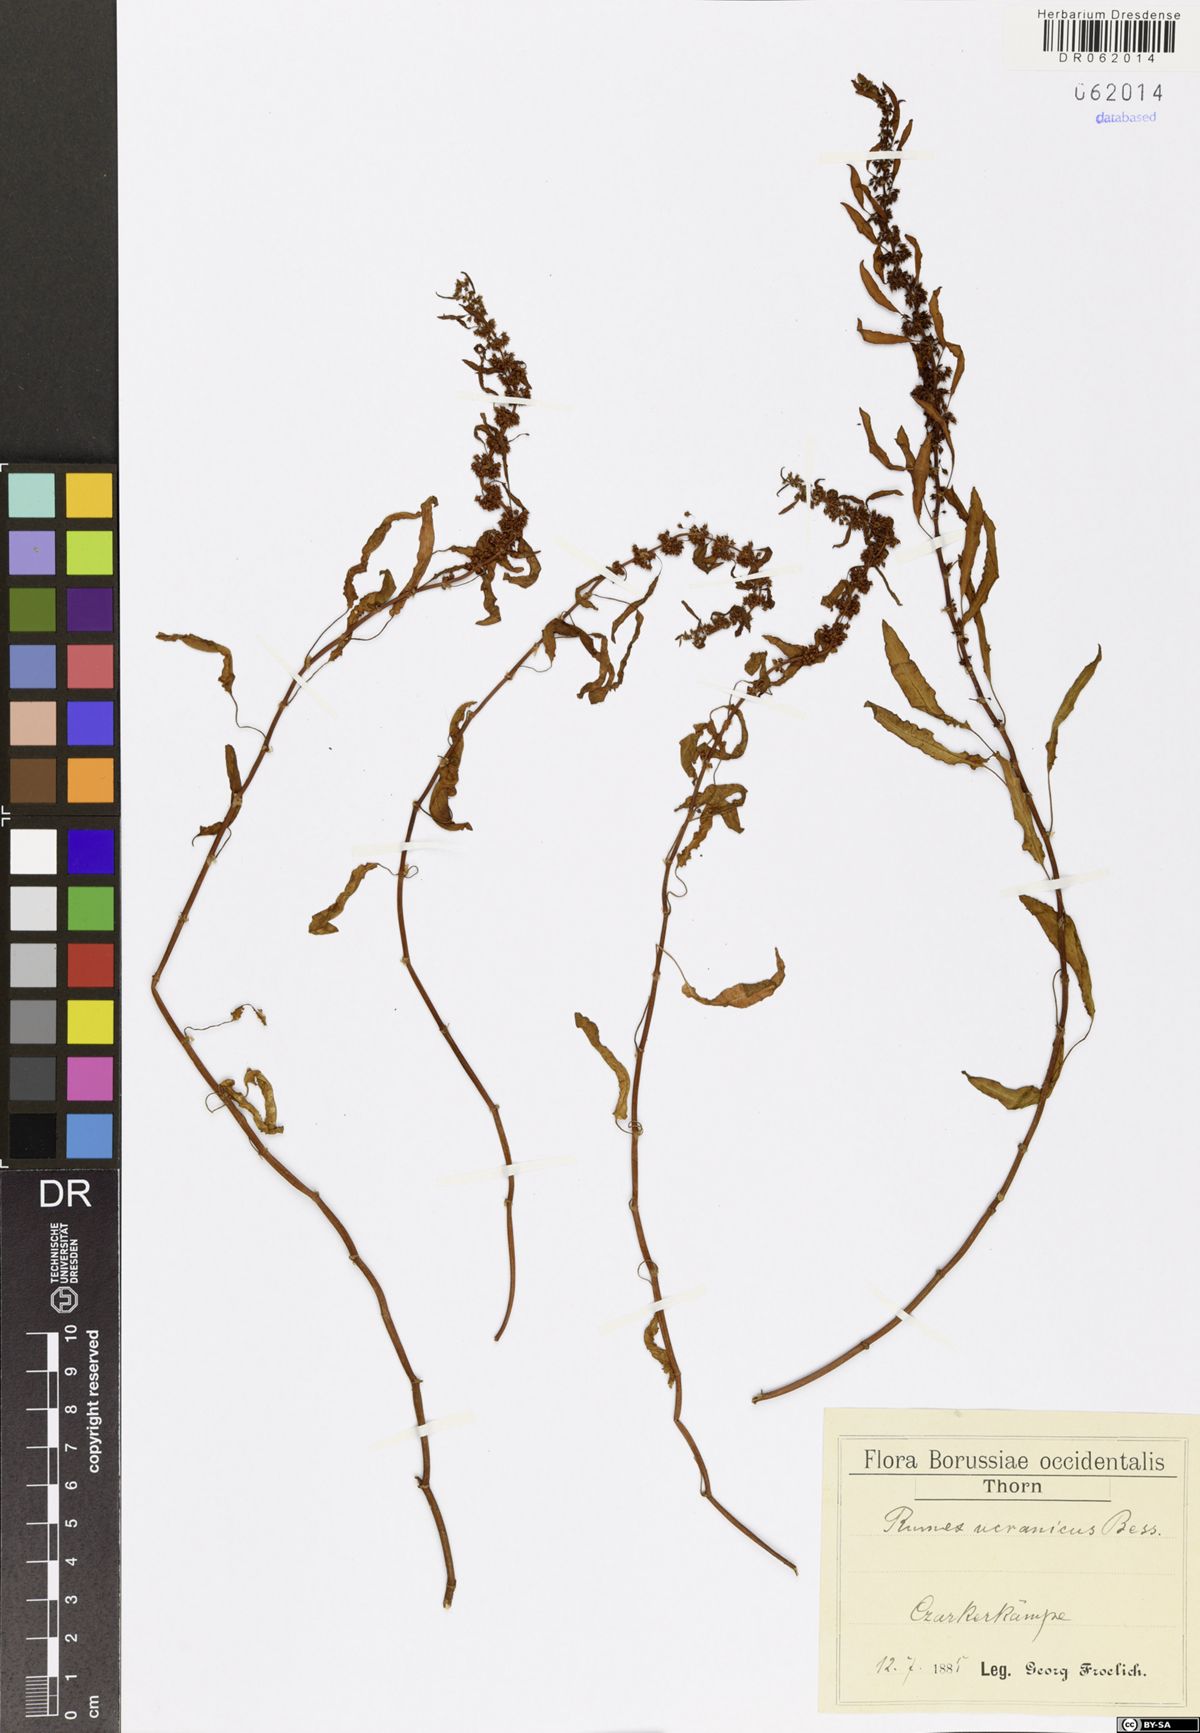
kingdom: Plantae
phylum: Tracheophyta
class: Magnoliopsida
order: Caryophyllales
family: Polygonaceae
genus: Rumex
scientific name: Rumex ucranicus
